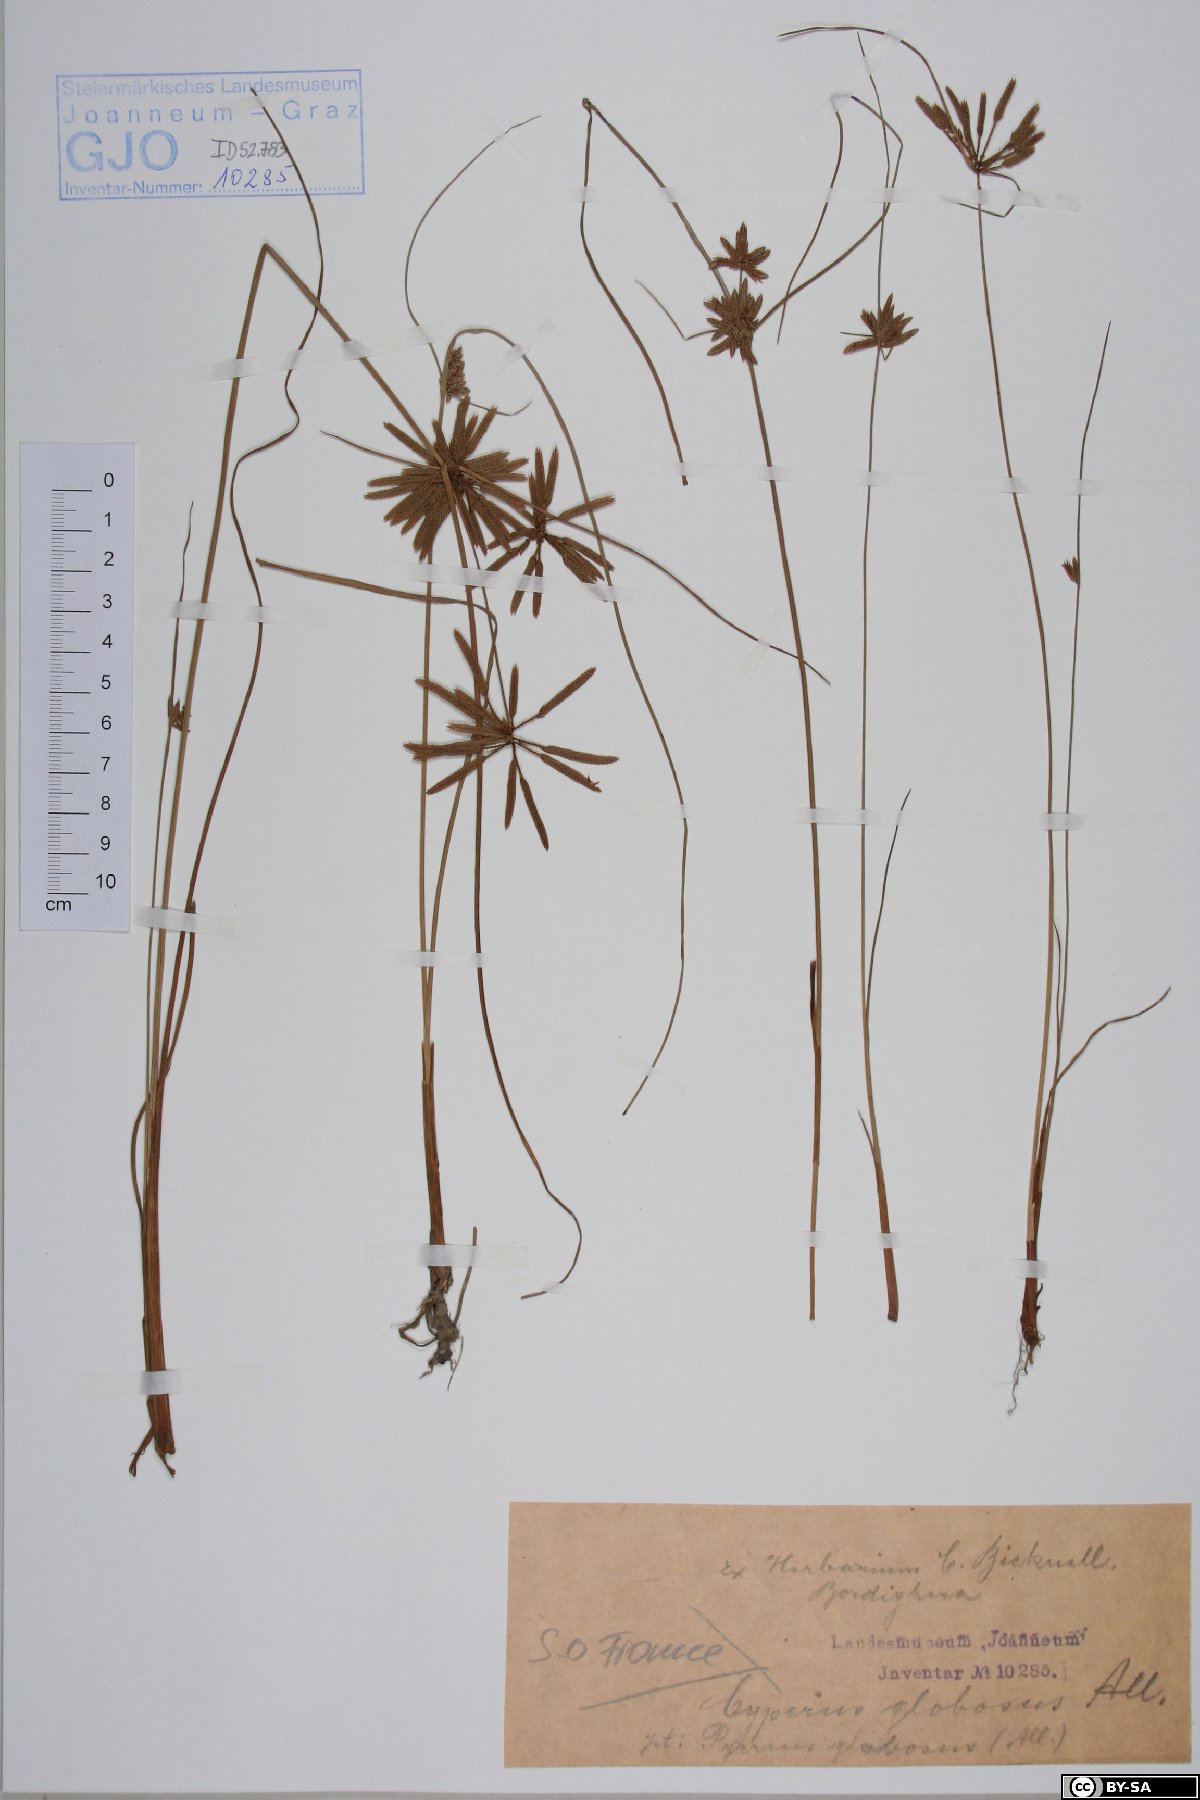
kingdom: Plantae
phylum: Tracheophyta
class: Liliopsida
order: Poales
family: Cyperaceae
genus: Cyperus
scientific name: Cyperus flavidus
